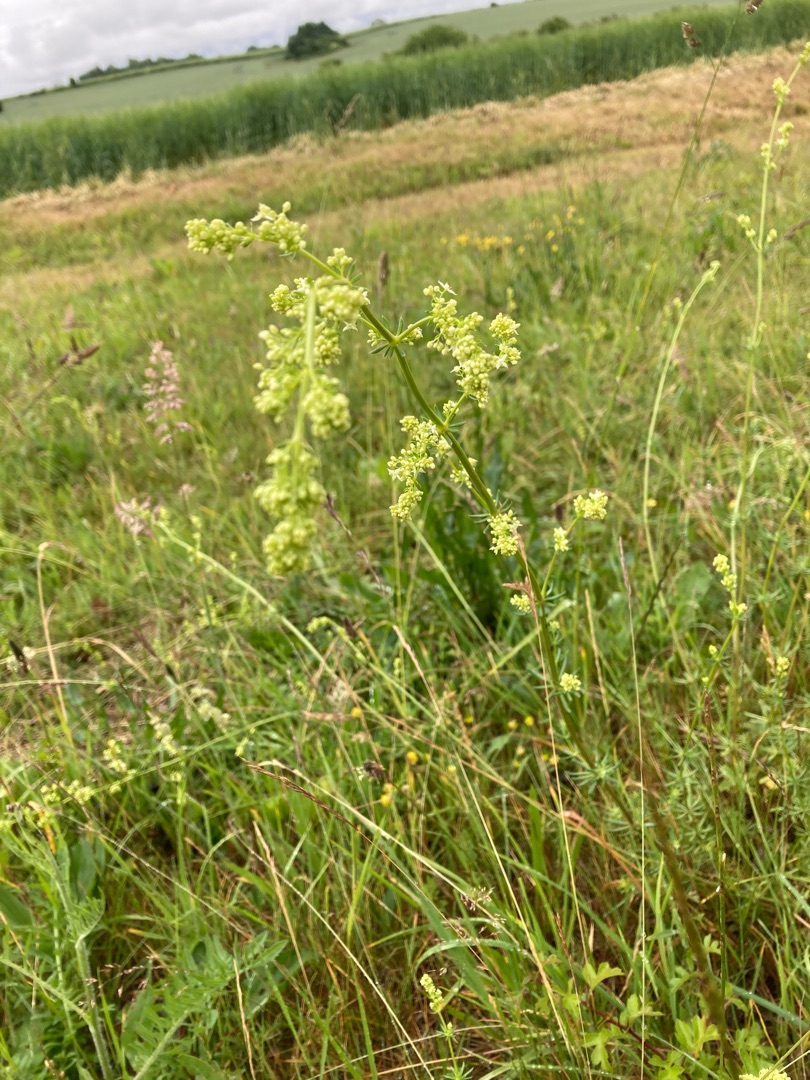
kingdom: Plantae
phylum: Tracheophyta
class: Magnoliopsida
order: Gentianales
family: Rubiaceae
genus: Galium
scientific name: Galium album
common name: Smalbladet snerre
